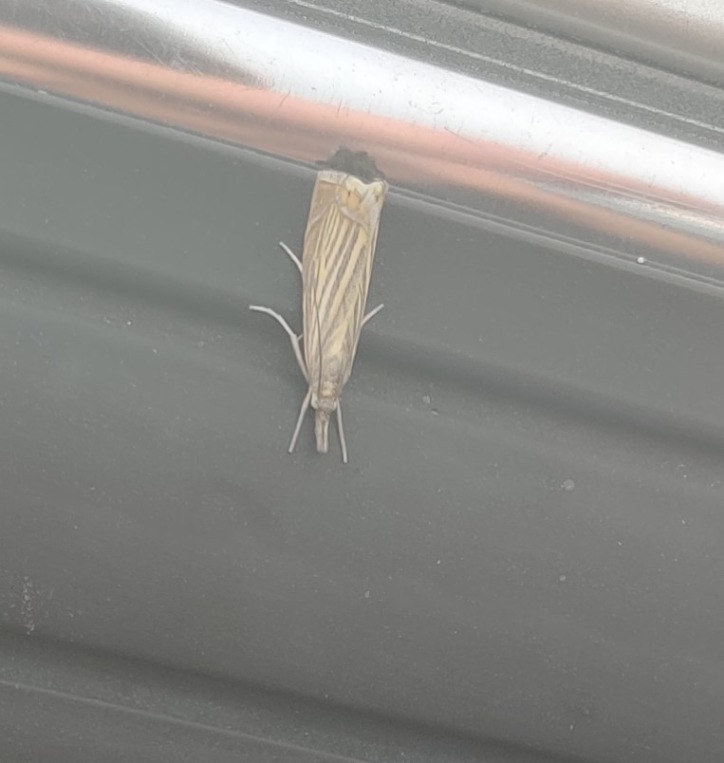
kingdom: Animalia
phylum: Arthropoda
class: Insecta
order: Lepidoptera
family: Crambidae
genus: Chrysoteuchia
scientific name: Chrysoteuchia culmella
